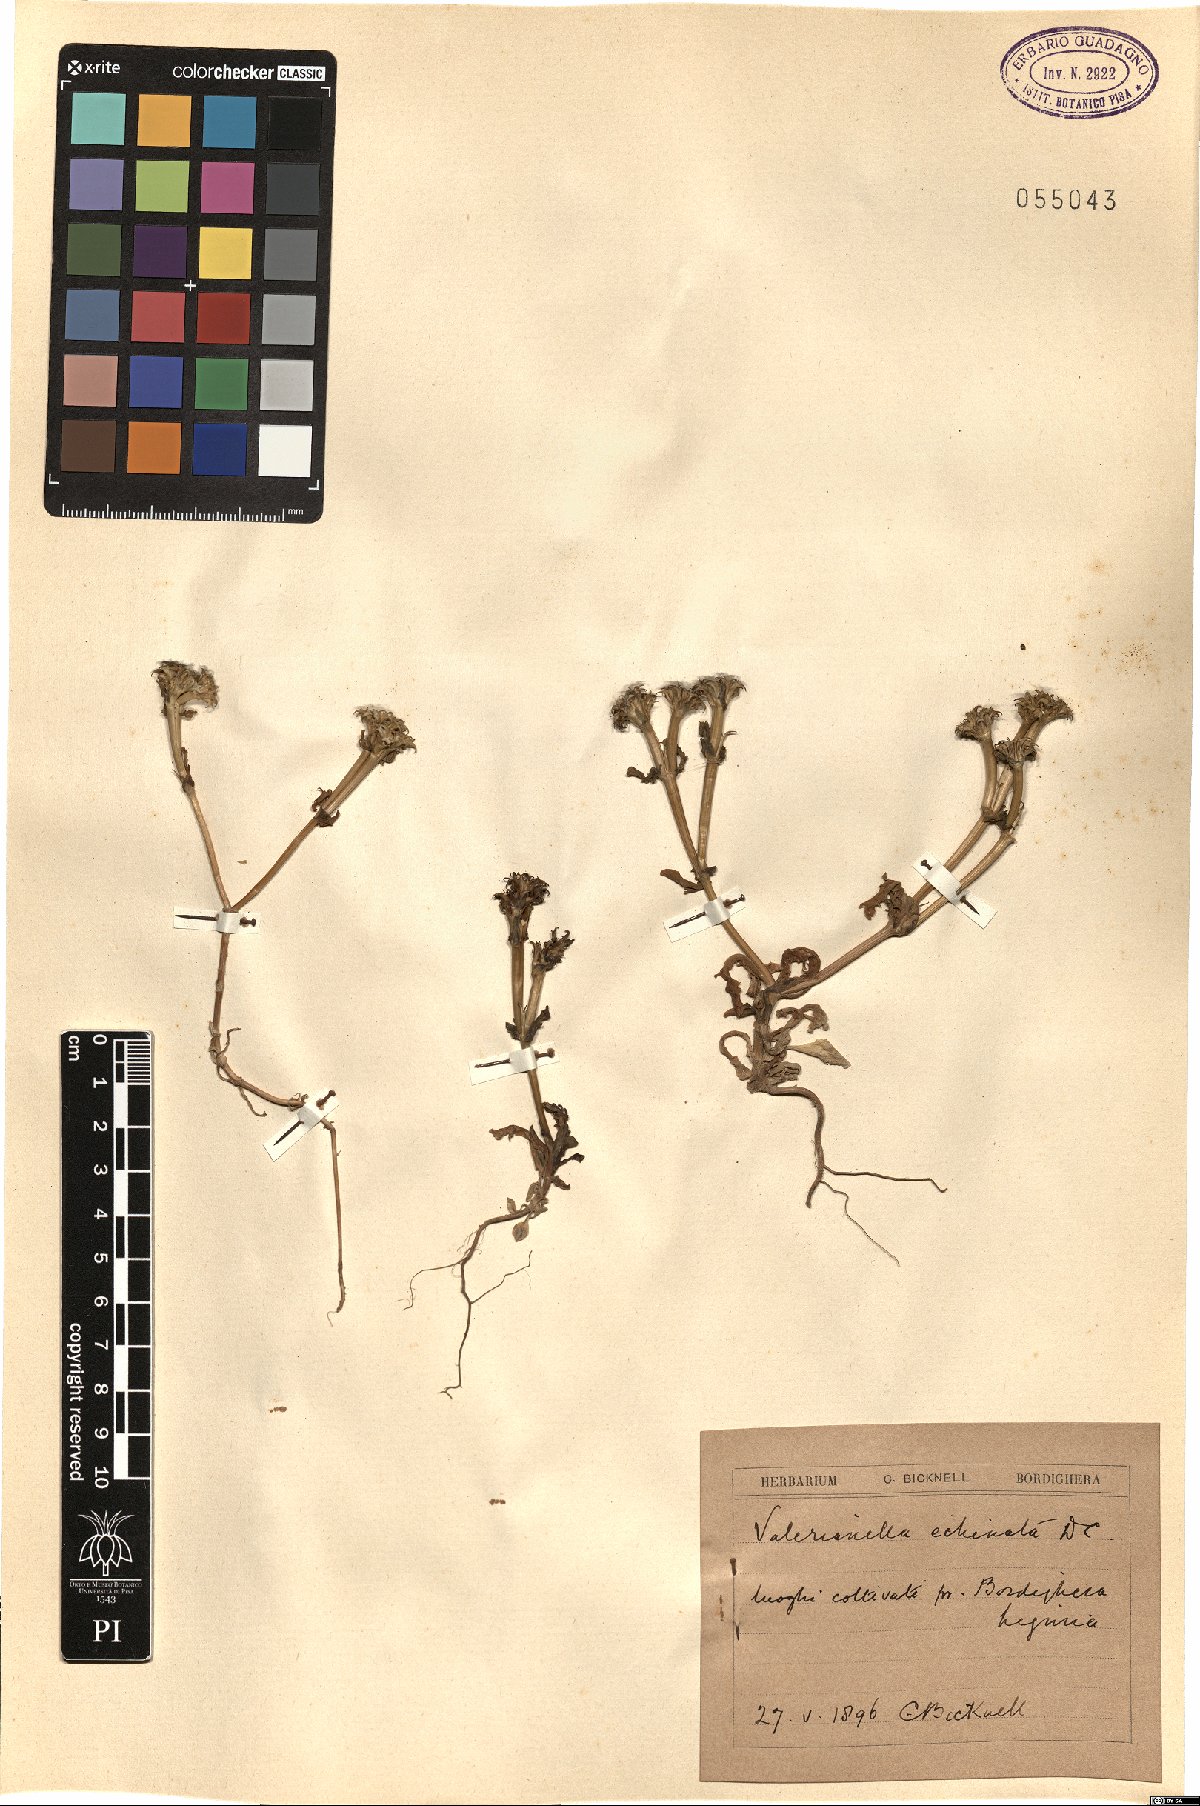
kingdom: Plantae
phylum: Tracheophyta
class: Magnoliopsida
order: Dipsacales
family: Caprifoliaceae
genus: Valerianella
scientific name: Valerianella echinata
